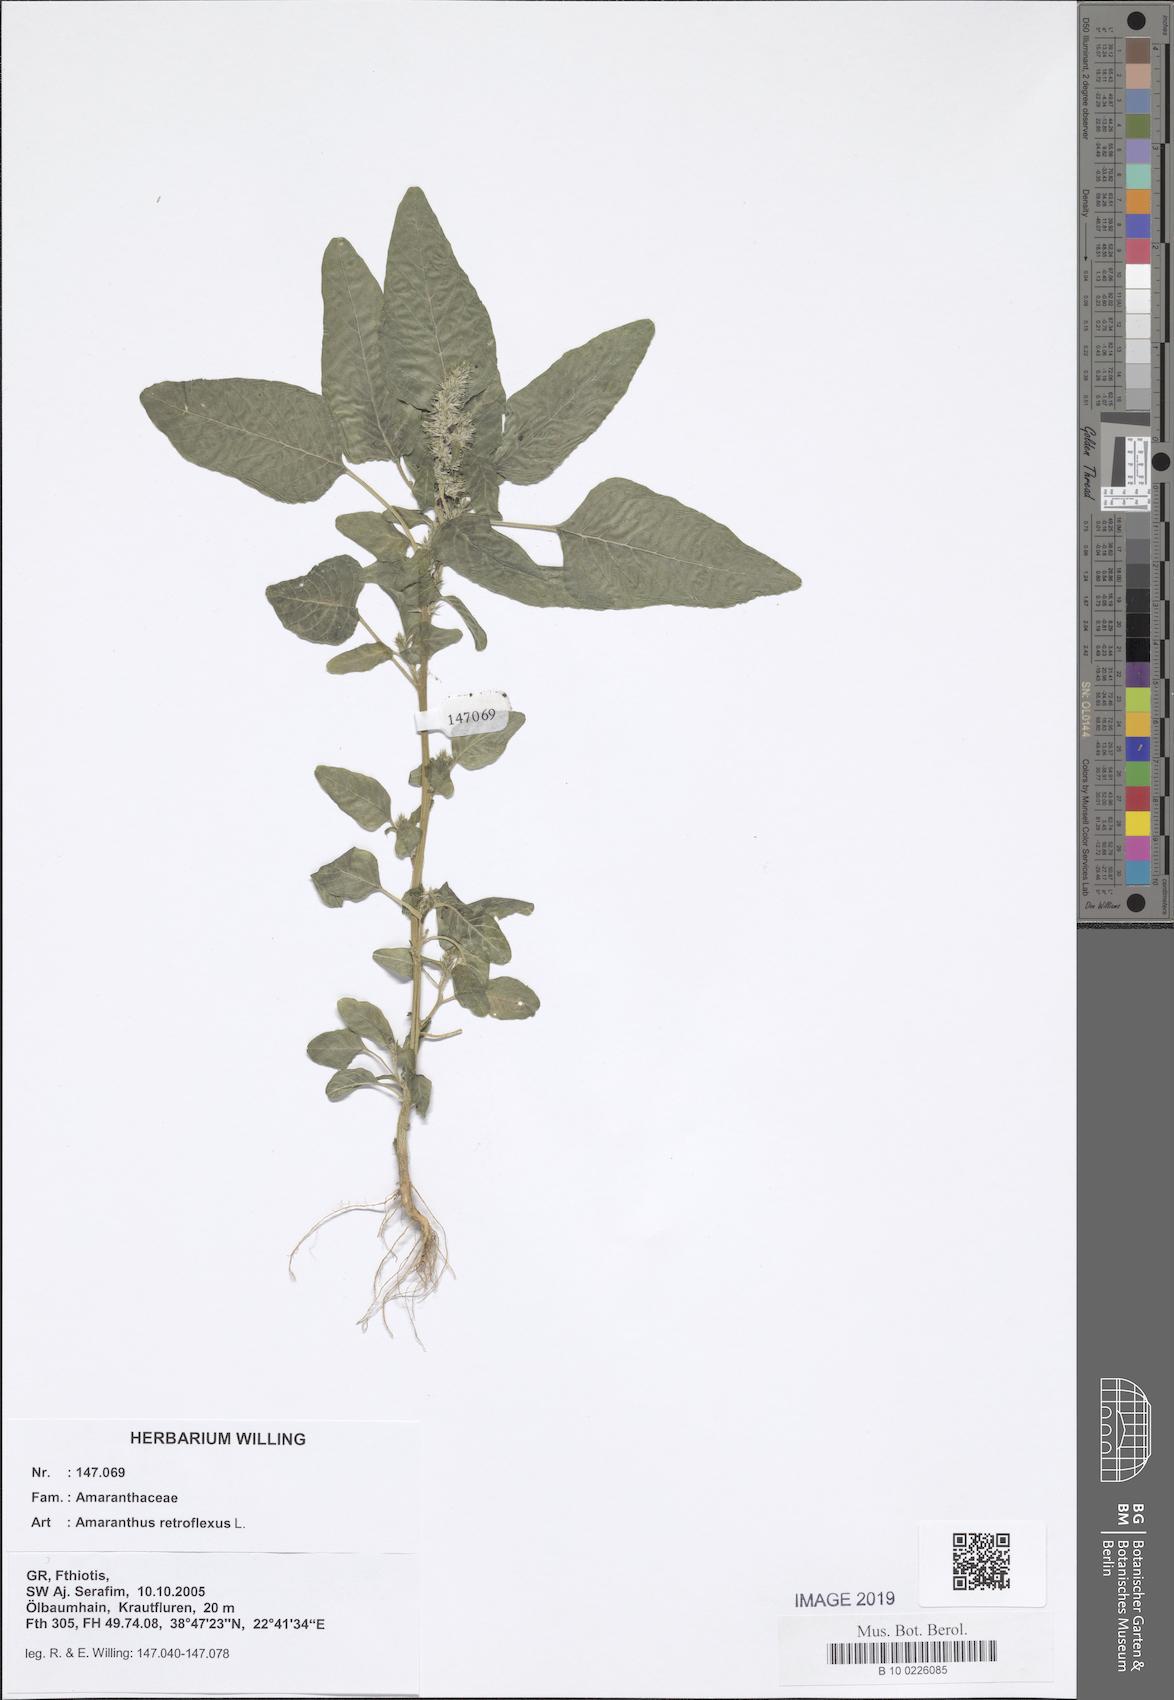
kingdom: Plantae
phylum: Tracheophyta
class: Magnoliopsida
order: Caryophyllales
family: Amaranthaceae
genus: Amaranthus
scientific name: Amaranthus retroflexus
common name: Redroot amaranth
